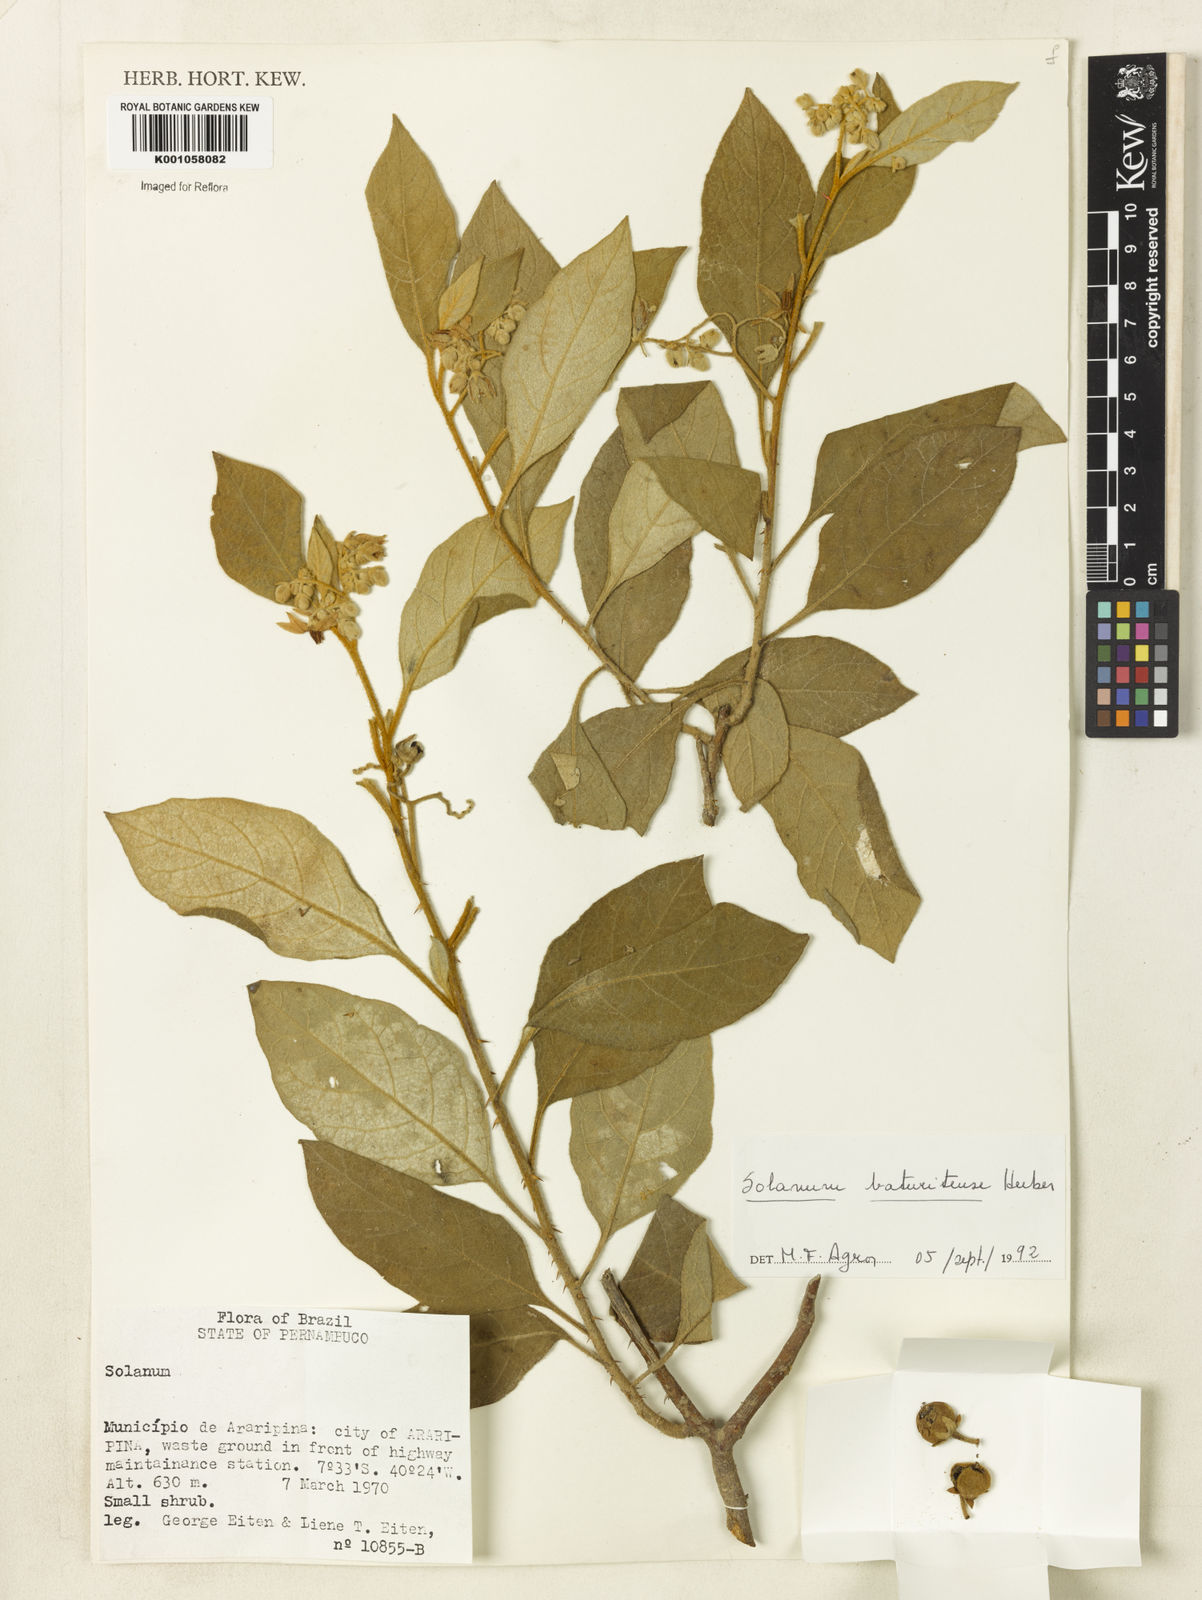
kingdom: Plantae
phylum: Tracheophyta
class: Magnoliopsida
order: Solanales
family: Solanaceae
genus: Solanum
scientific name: Solanum rhytidoandrum
